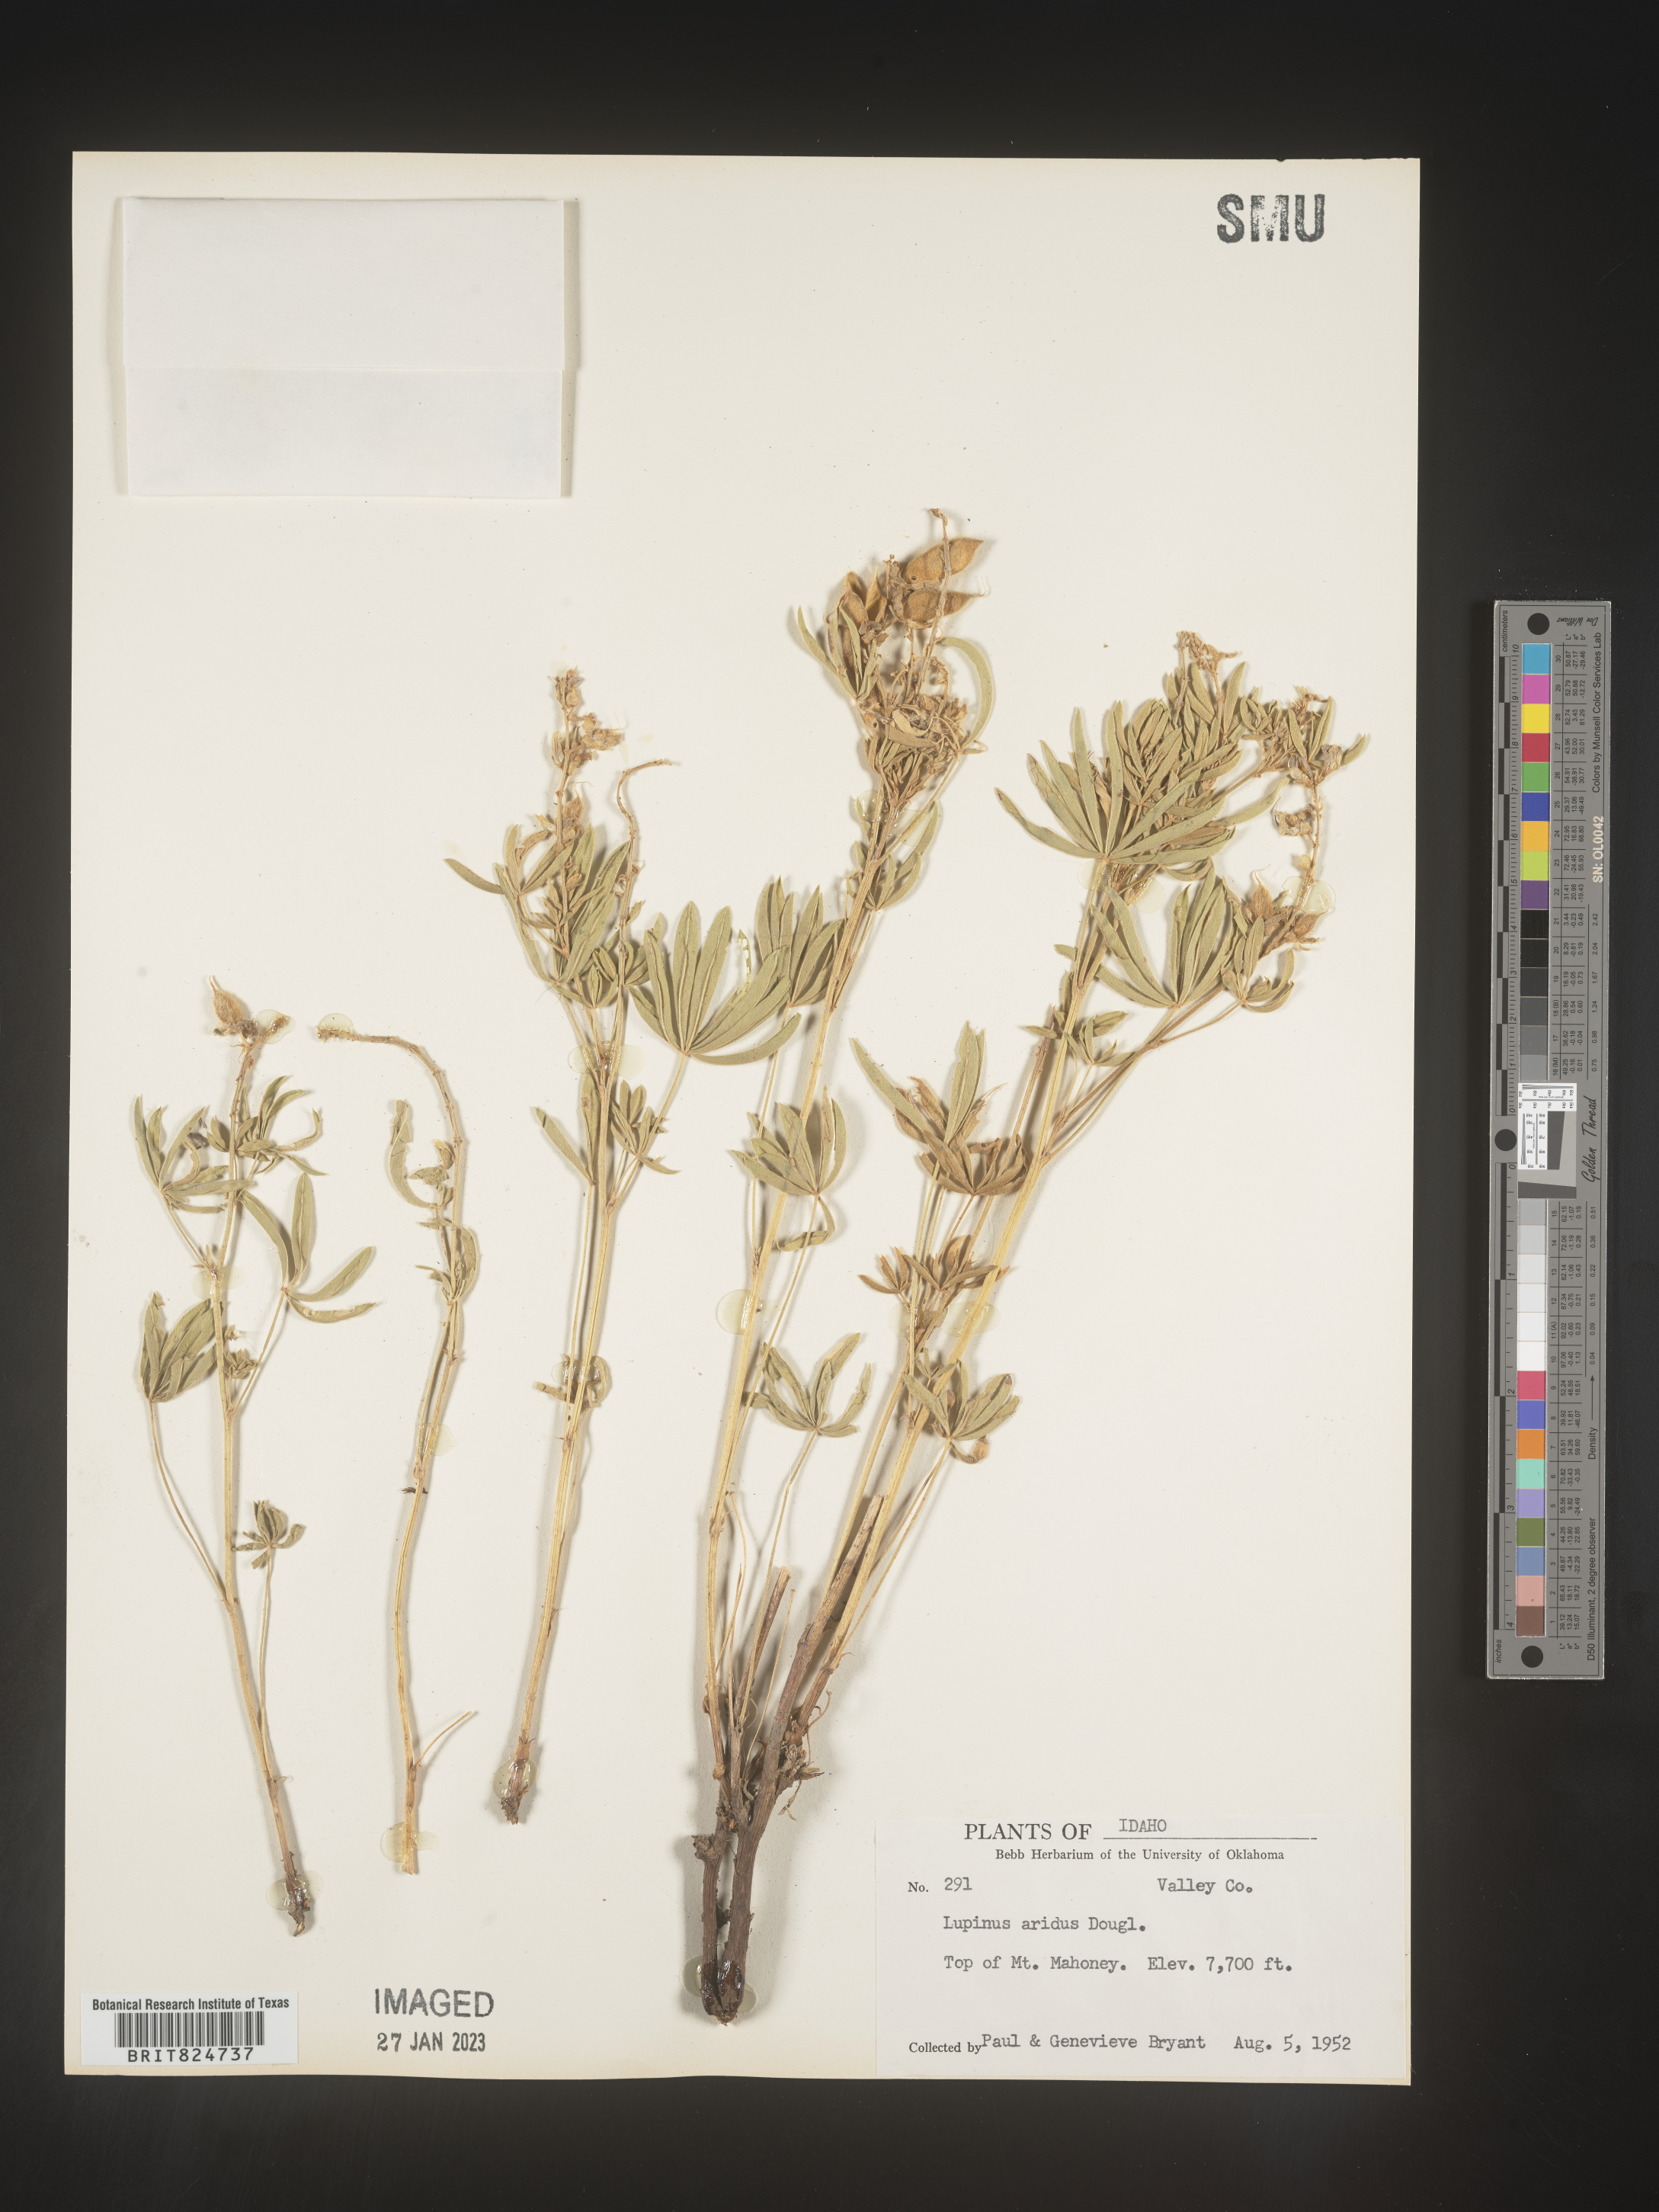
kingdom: Plantae
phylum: Tracheophyta
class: Magnoliopsida
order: Fabales
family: Fabaceae
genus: Lupinus
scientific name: Lupinus aridus
